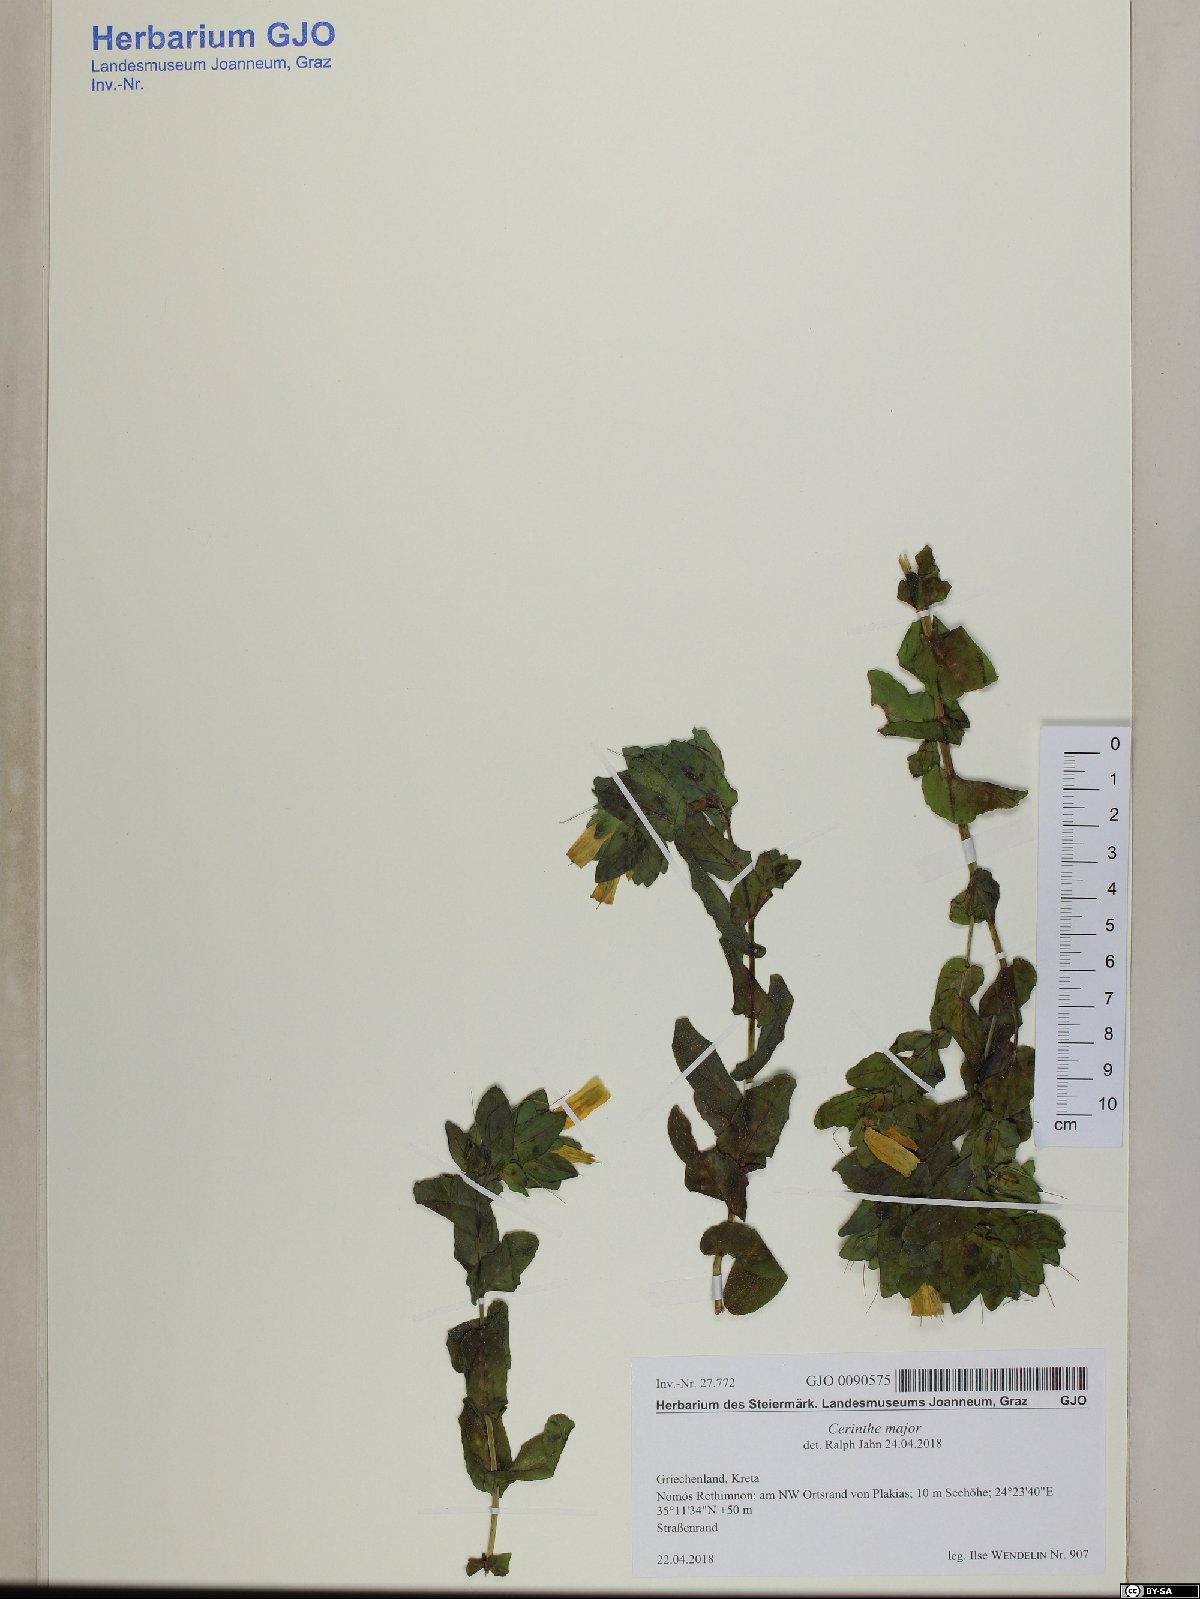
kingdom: Plantae
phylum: Tracheophyta
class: Magnoliopsida
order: Boraginales
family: Boraginaceae
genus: Cerinthe
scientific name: Cerinthe major
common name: Greater honeywort
